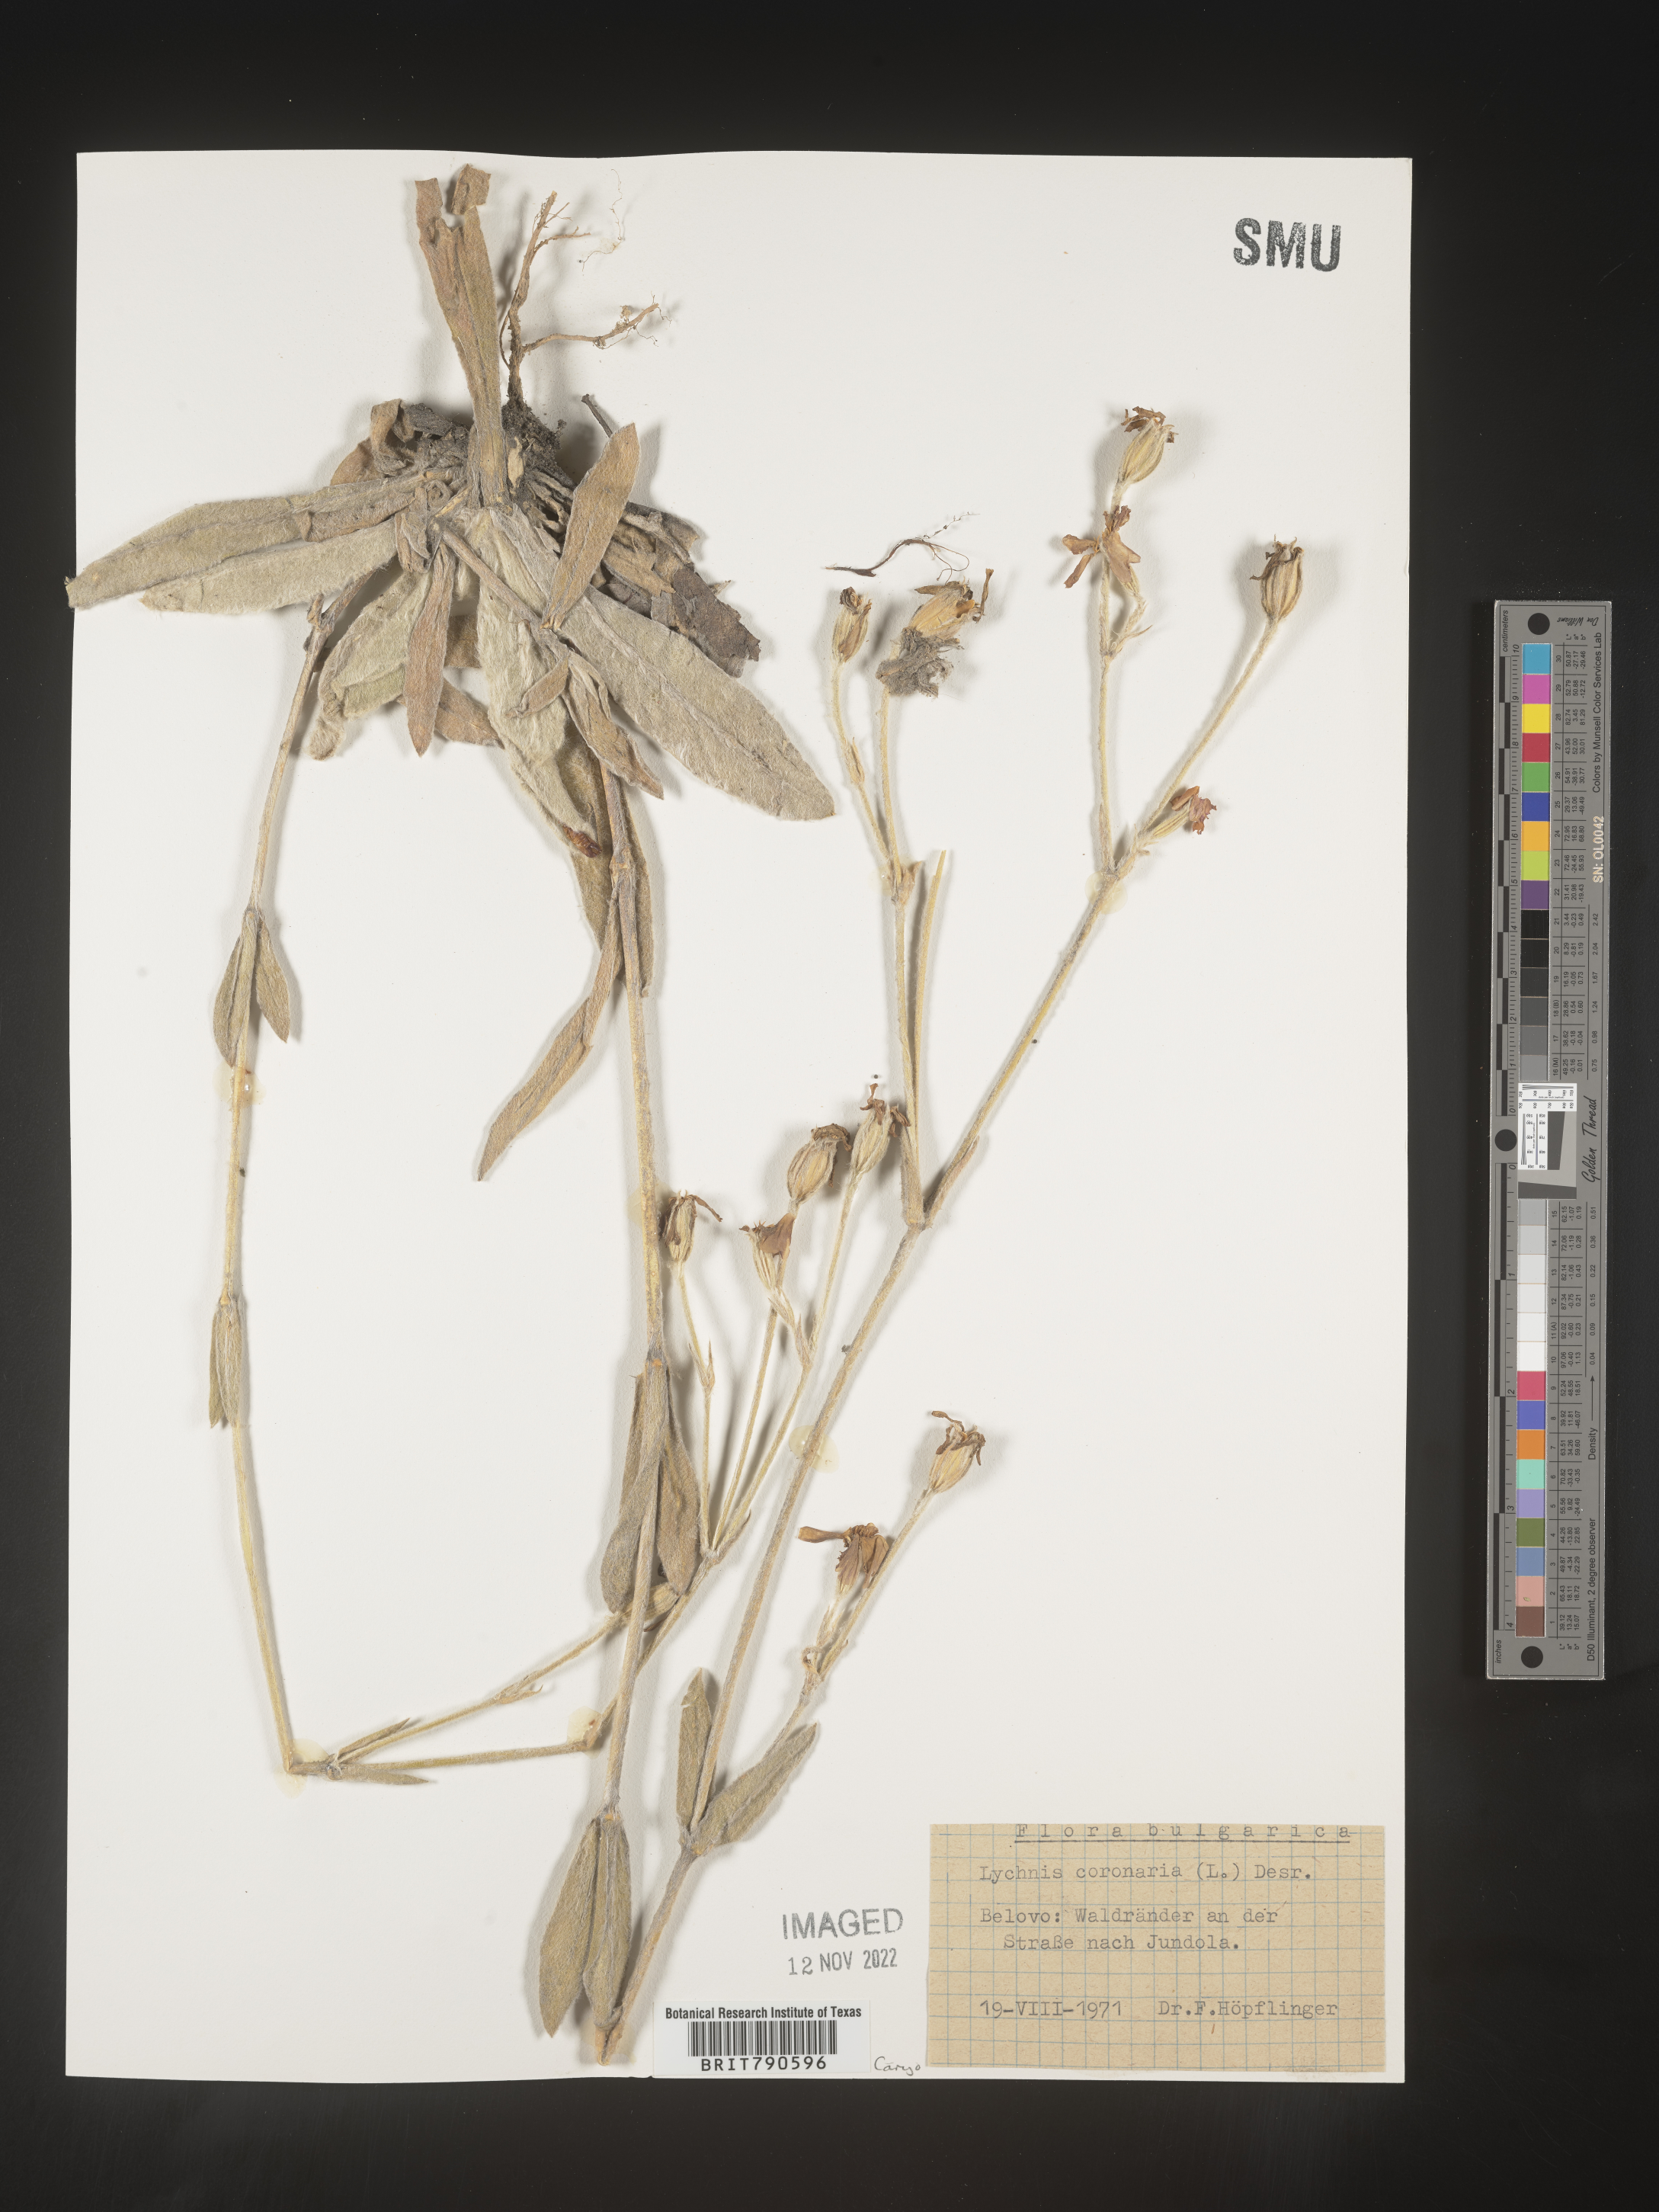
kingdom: Plantae
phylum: Tracheophyta
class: Magnoliopsida
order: Caryophyllales
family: Caryophyllaceae
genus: Silene
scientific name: Silene
